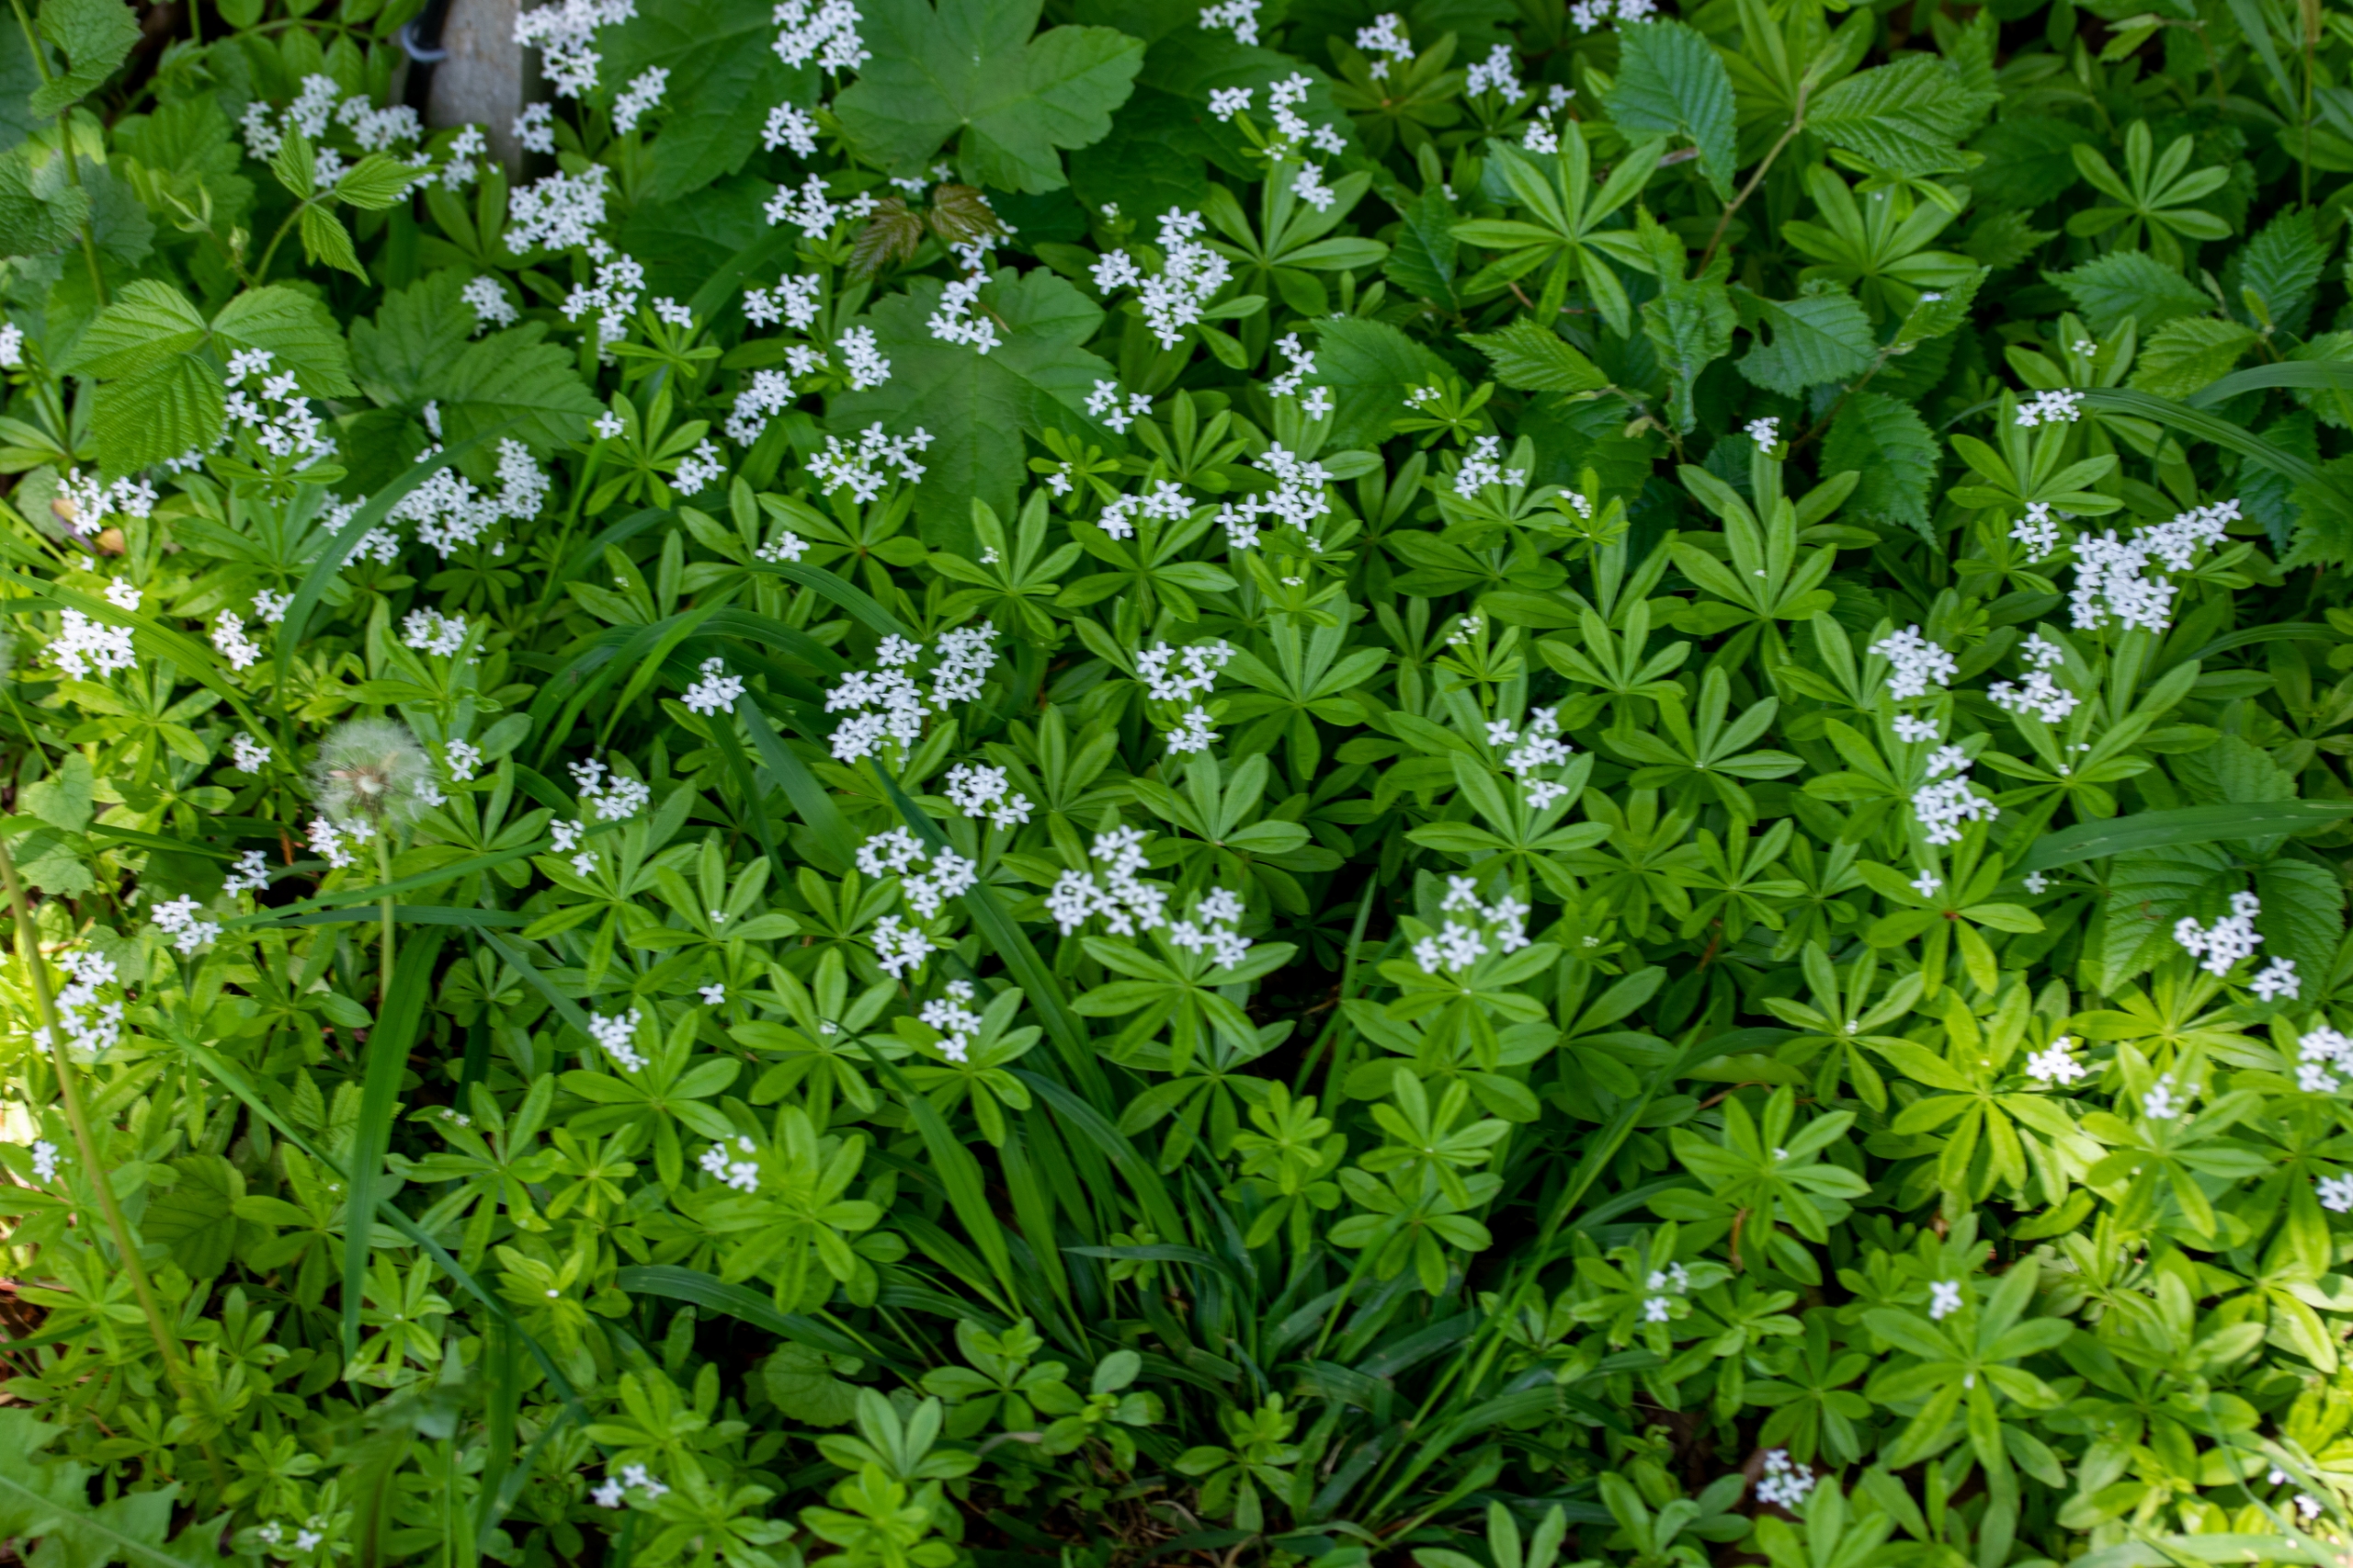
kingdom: Plantae
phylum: Tracheophyta
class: Magnoliopsida
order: Gentianales
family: Rubiaceae
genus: Galium
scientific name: Galium odoratum
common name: Skovmærke
